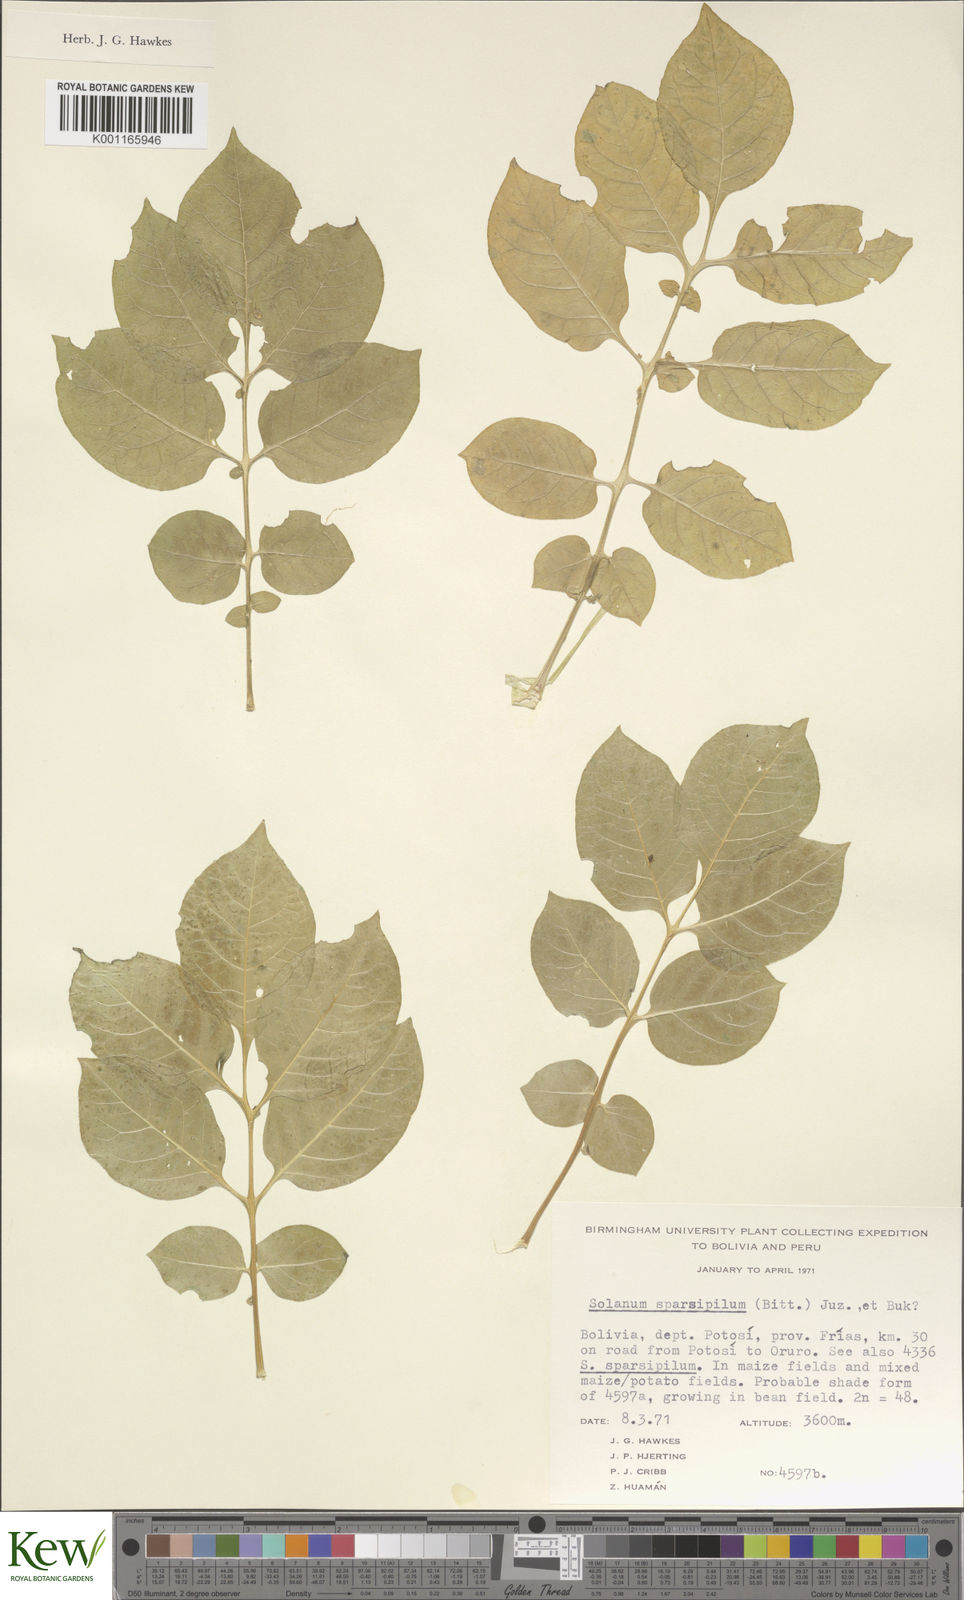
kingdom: Plantae
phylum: Tracheophyta
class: Magnoliopsida
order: Solanales
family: Solanaceae
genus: Solanum
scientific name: Solanum brevicaule
